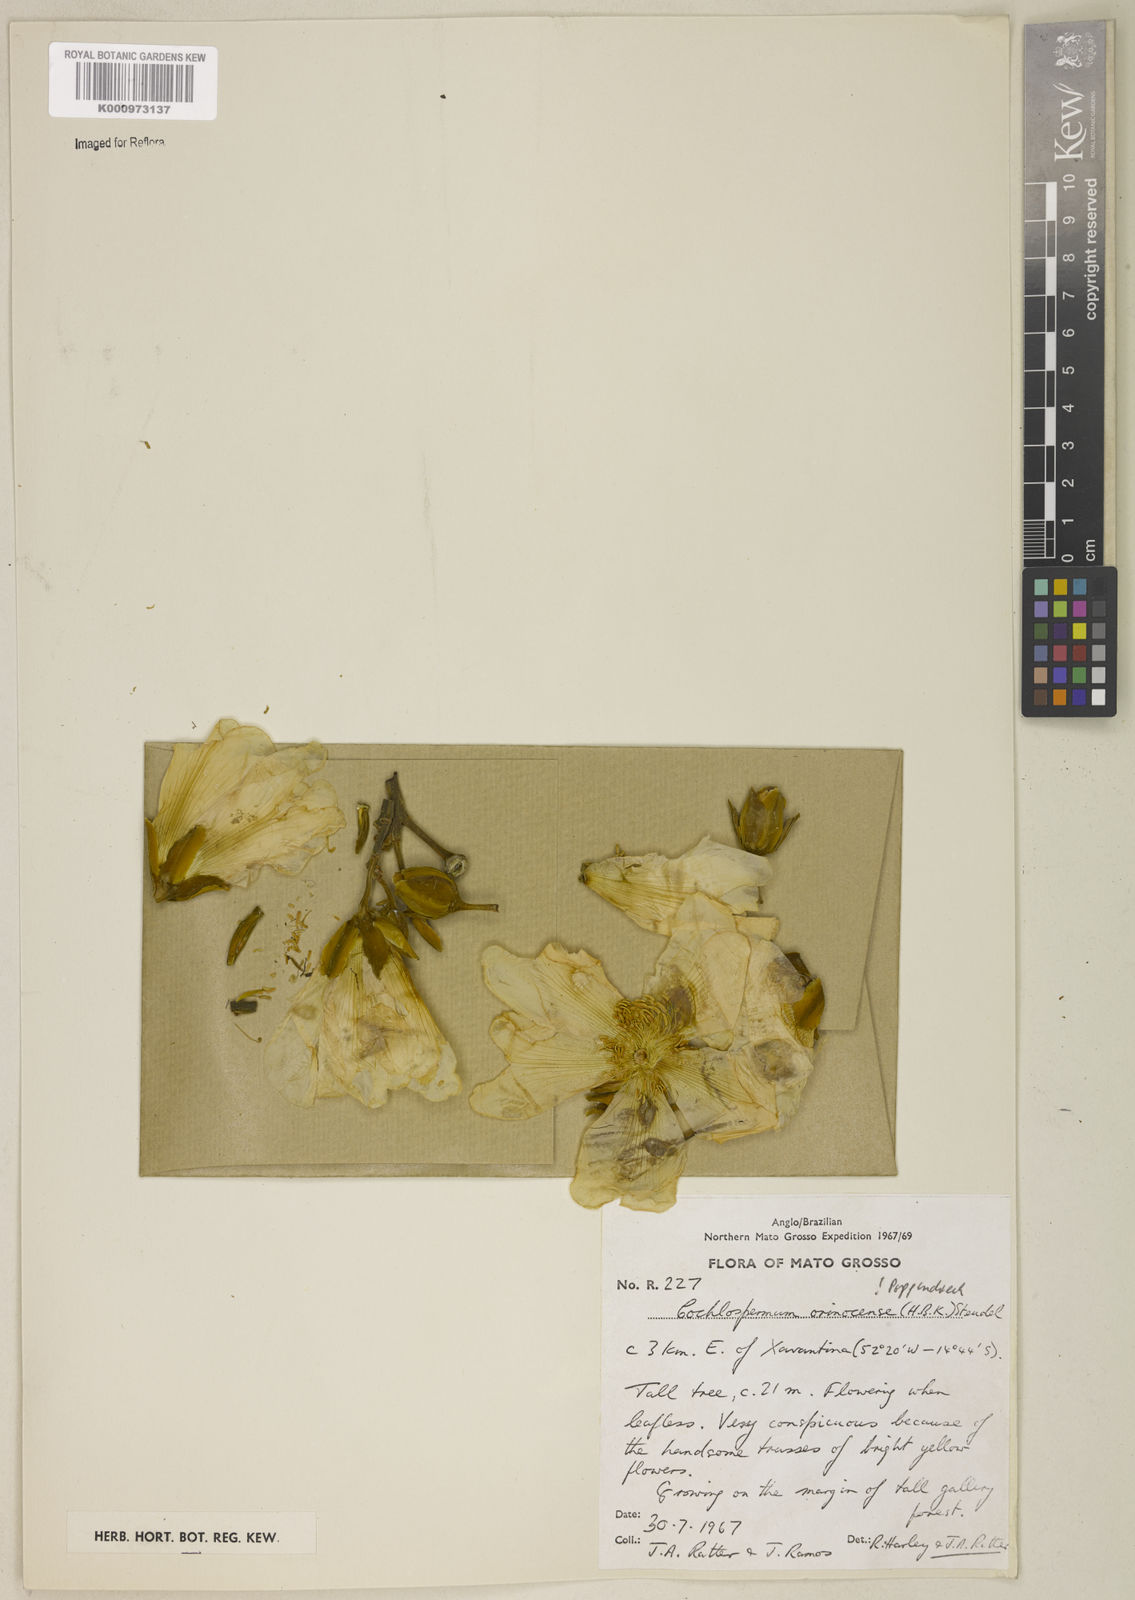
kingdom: Plantae
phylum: Tracheophyta
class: Magnoliopsida
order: Malvales
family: Cochlospermaceae
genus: Cochlospermum
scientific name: Cochlospermum orinocense
